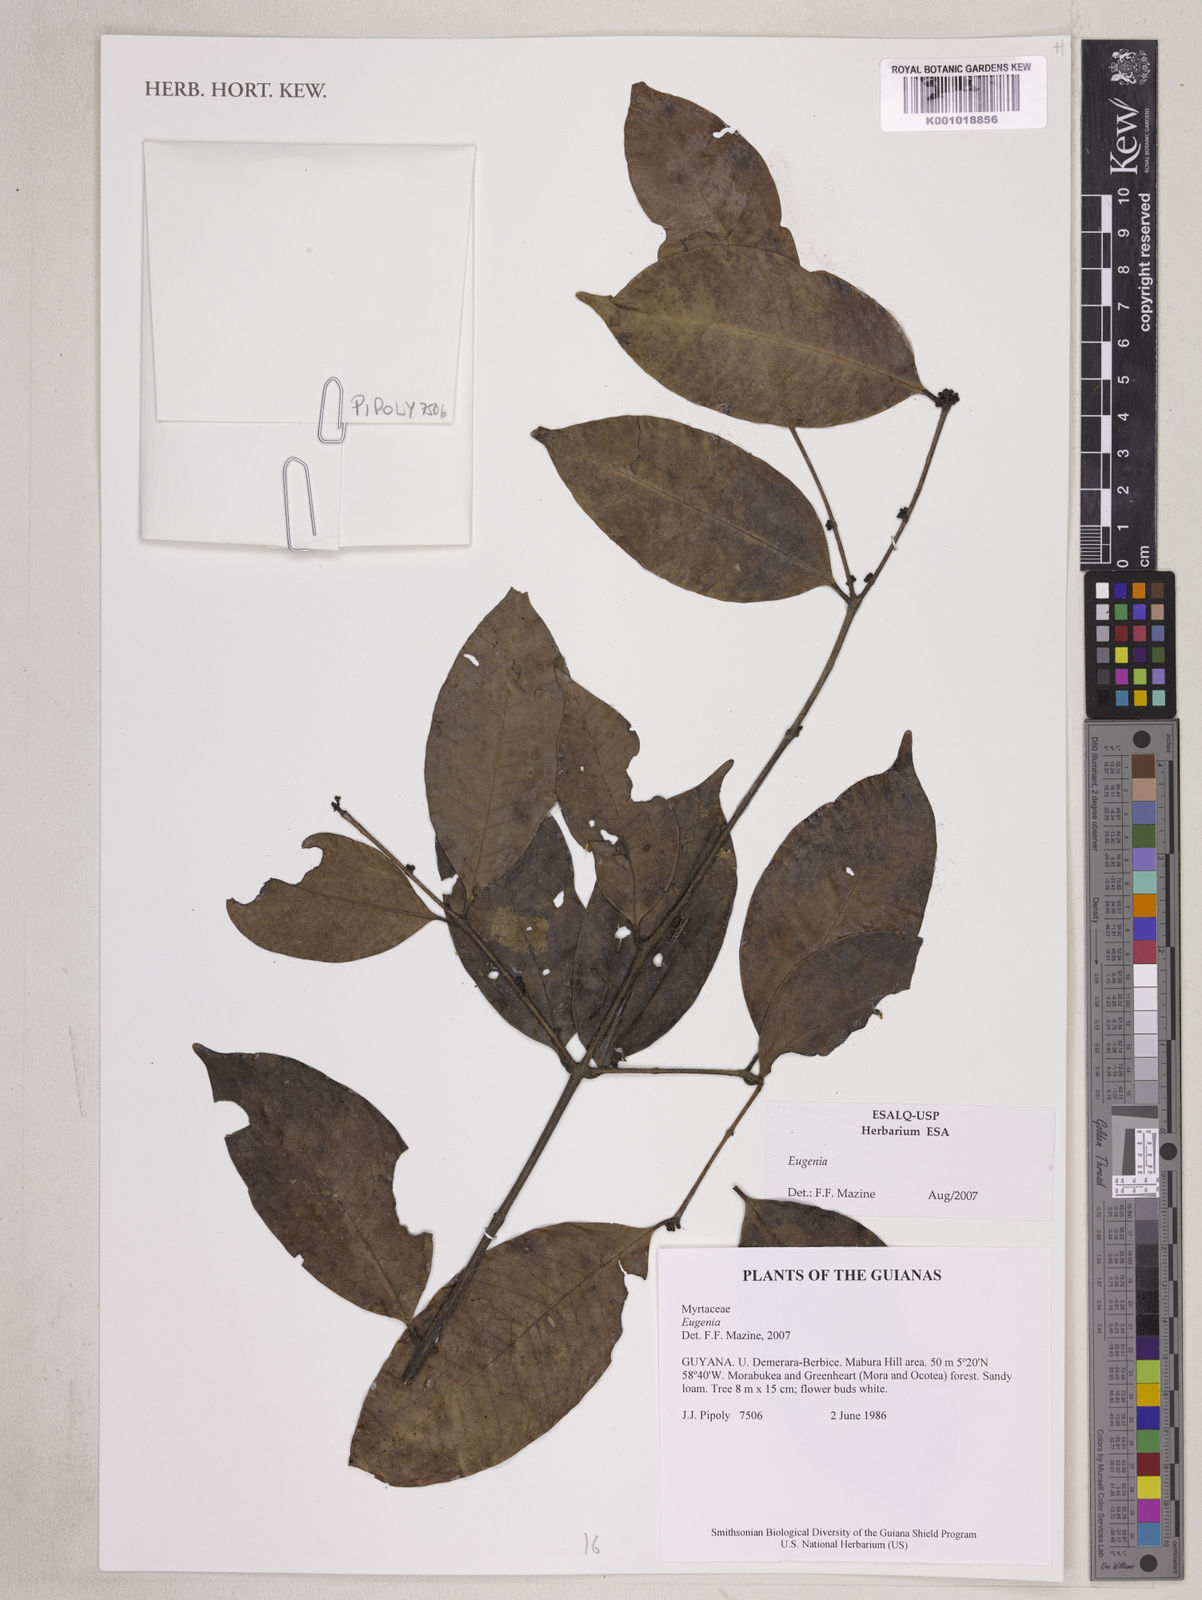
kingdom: Plantae
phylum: Tracheophyta
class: Magnoliopsida
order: Myrtales
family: Myrtaceae
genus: Eugenia
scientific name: Eugenia
